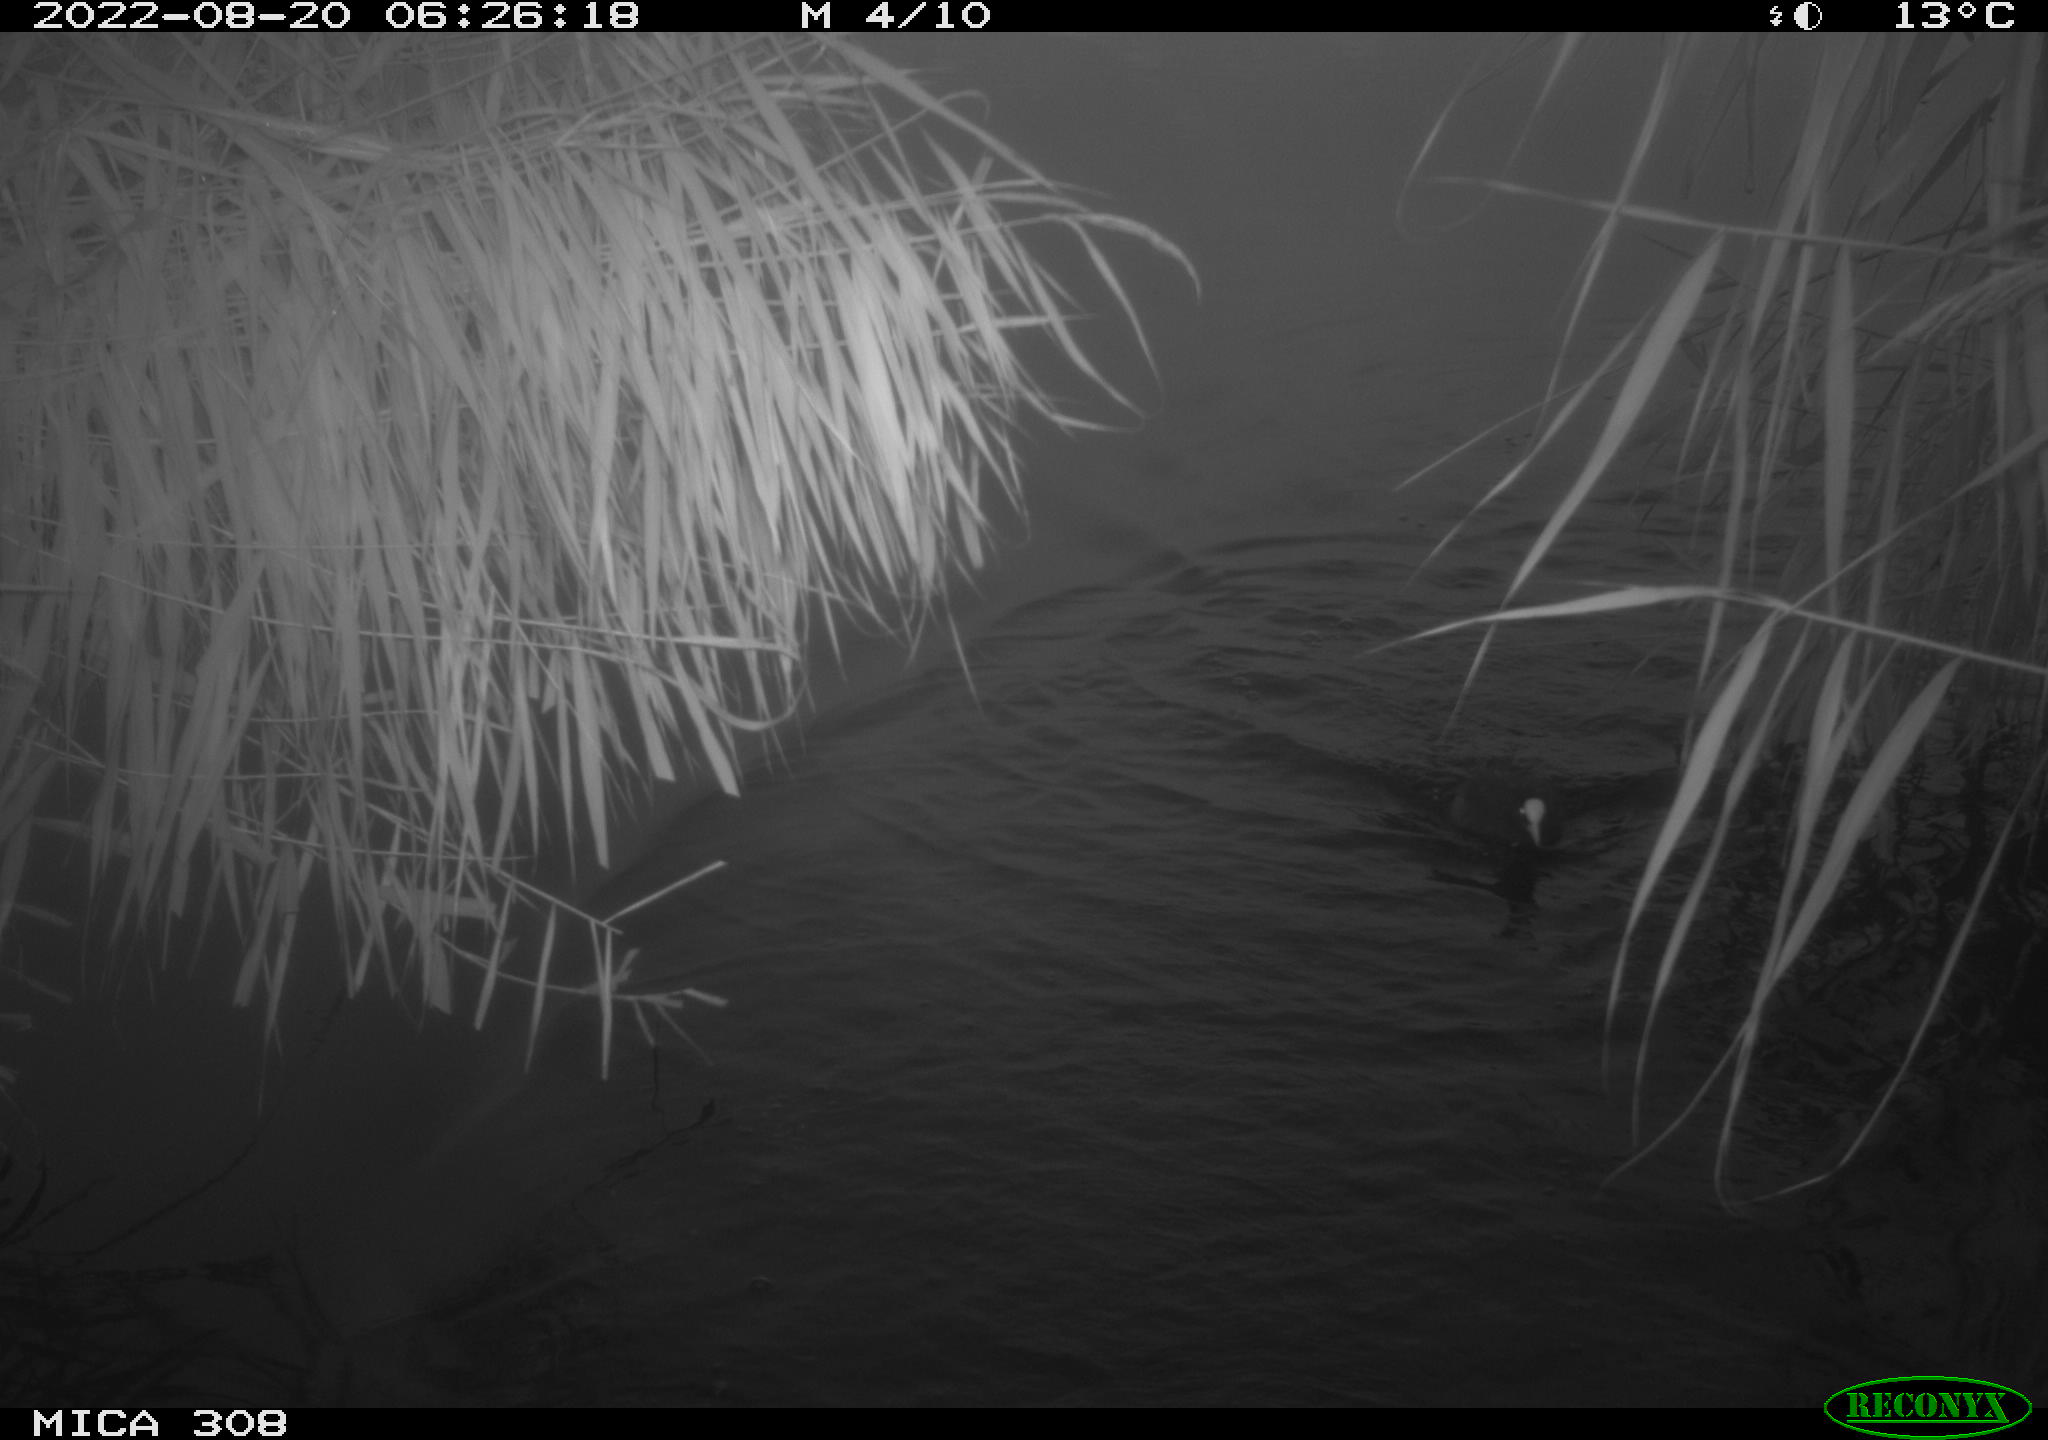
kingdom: Animalia
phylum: Chordata
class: Aves
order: Gruiformes
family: Rallidae
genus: Gallinula
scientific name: Gallinula chloropus
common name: Common moorhen
